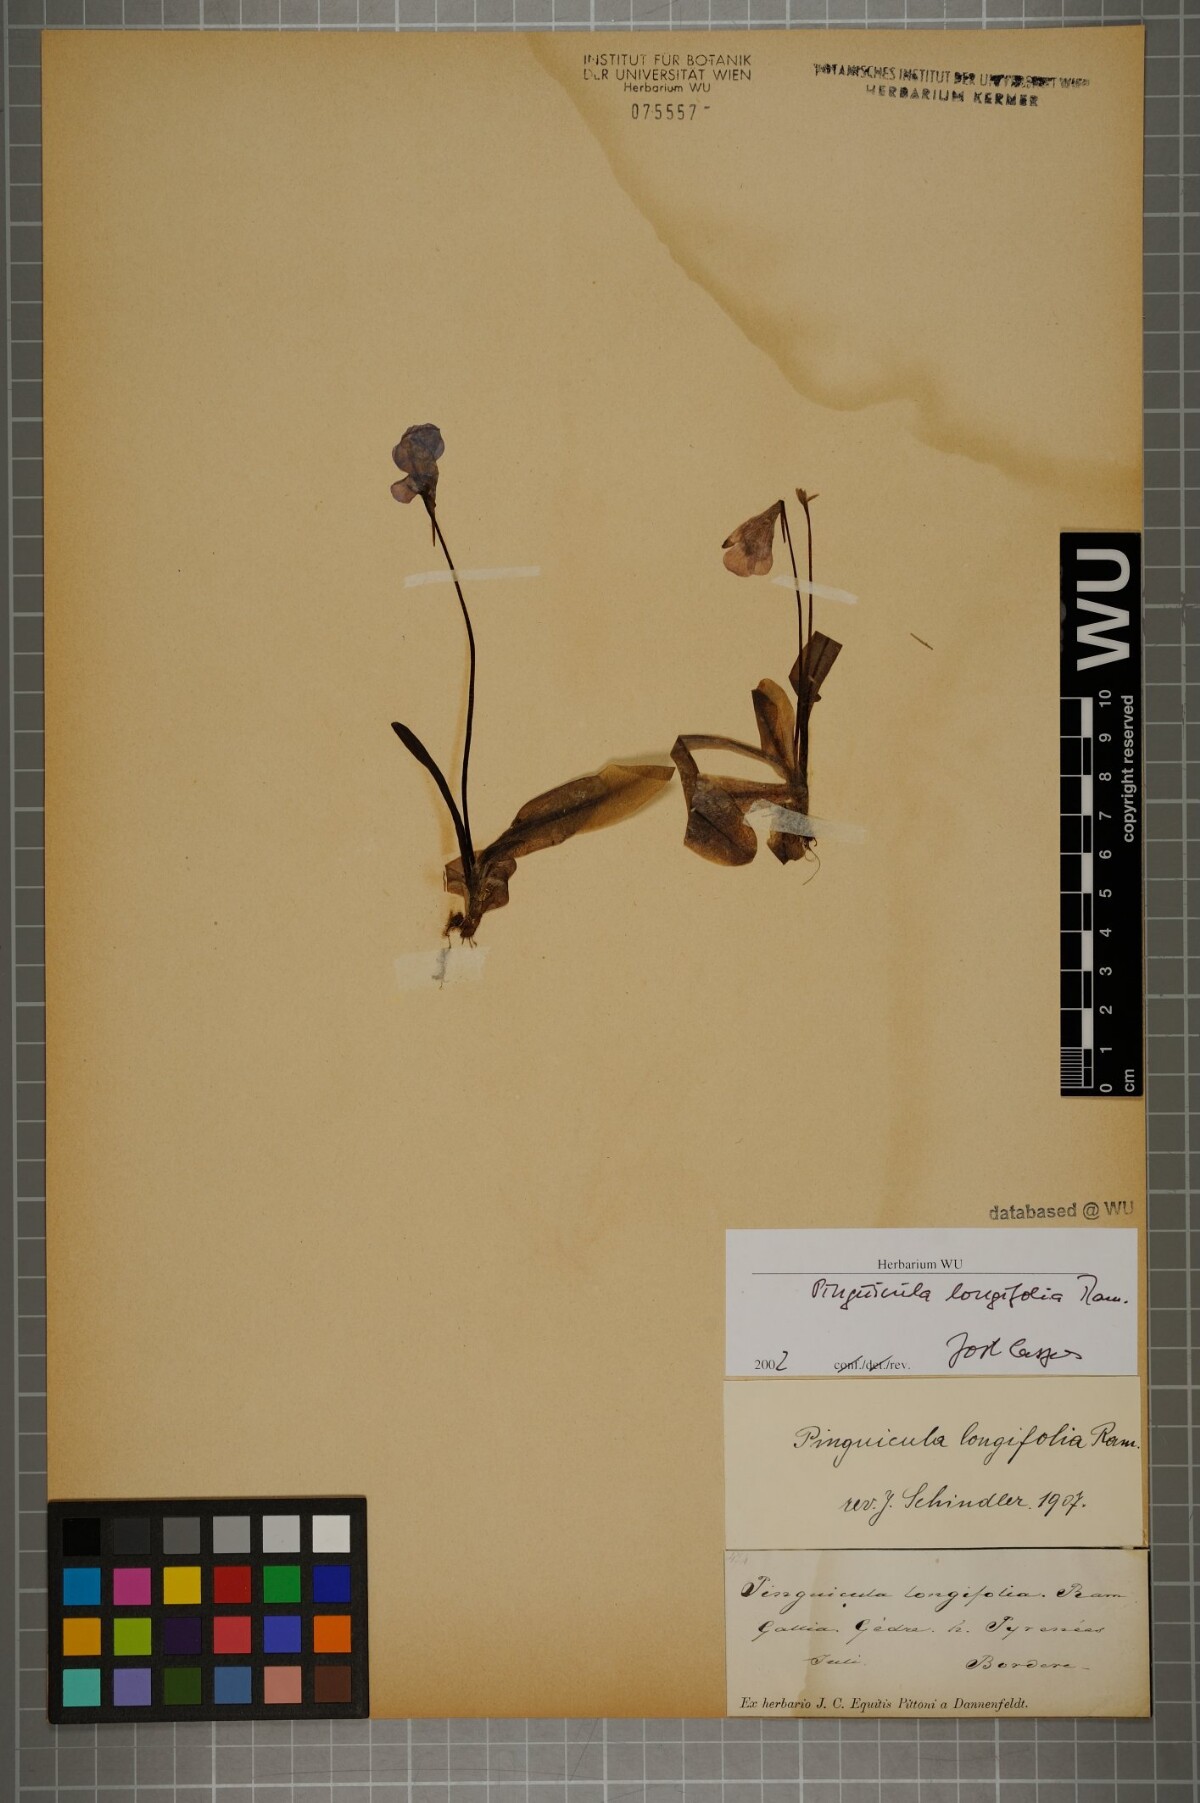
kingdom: Plantae
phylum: Tracheophyta
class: Magnoliopsida
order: Lamiales
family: Lentibulariaceae
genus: Pinguicula
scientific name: Pinguicula longifolia
